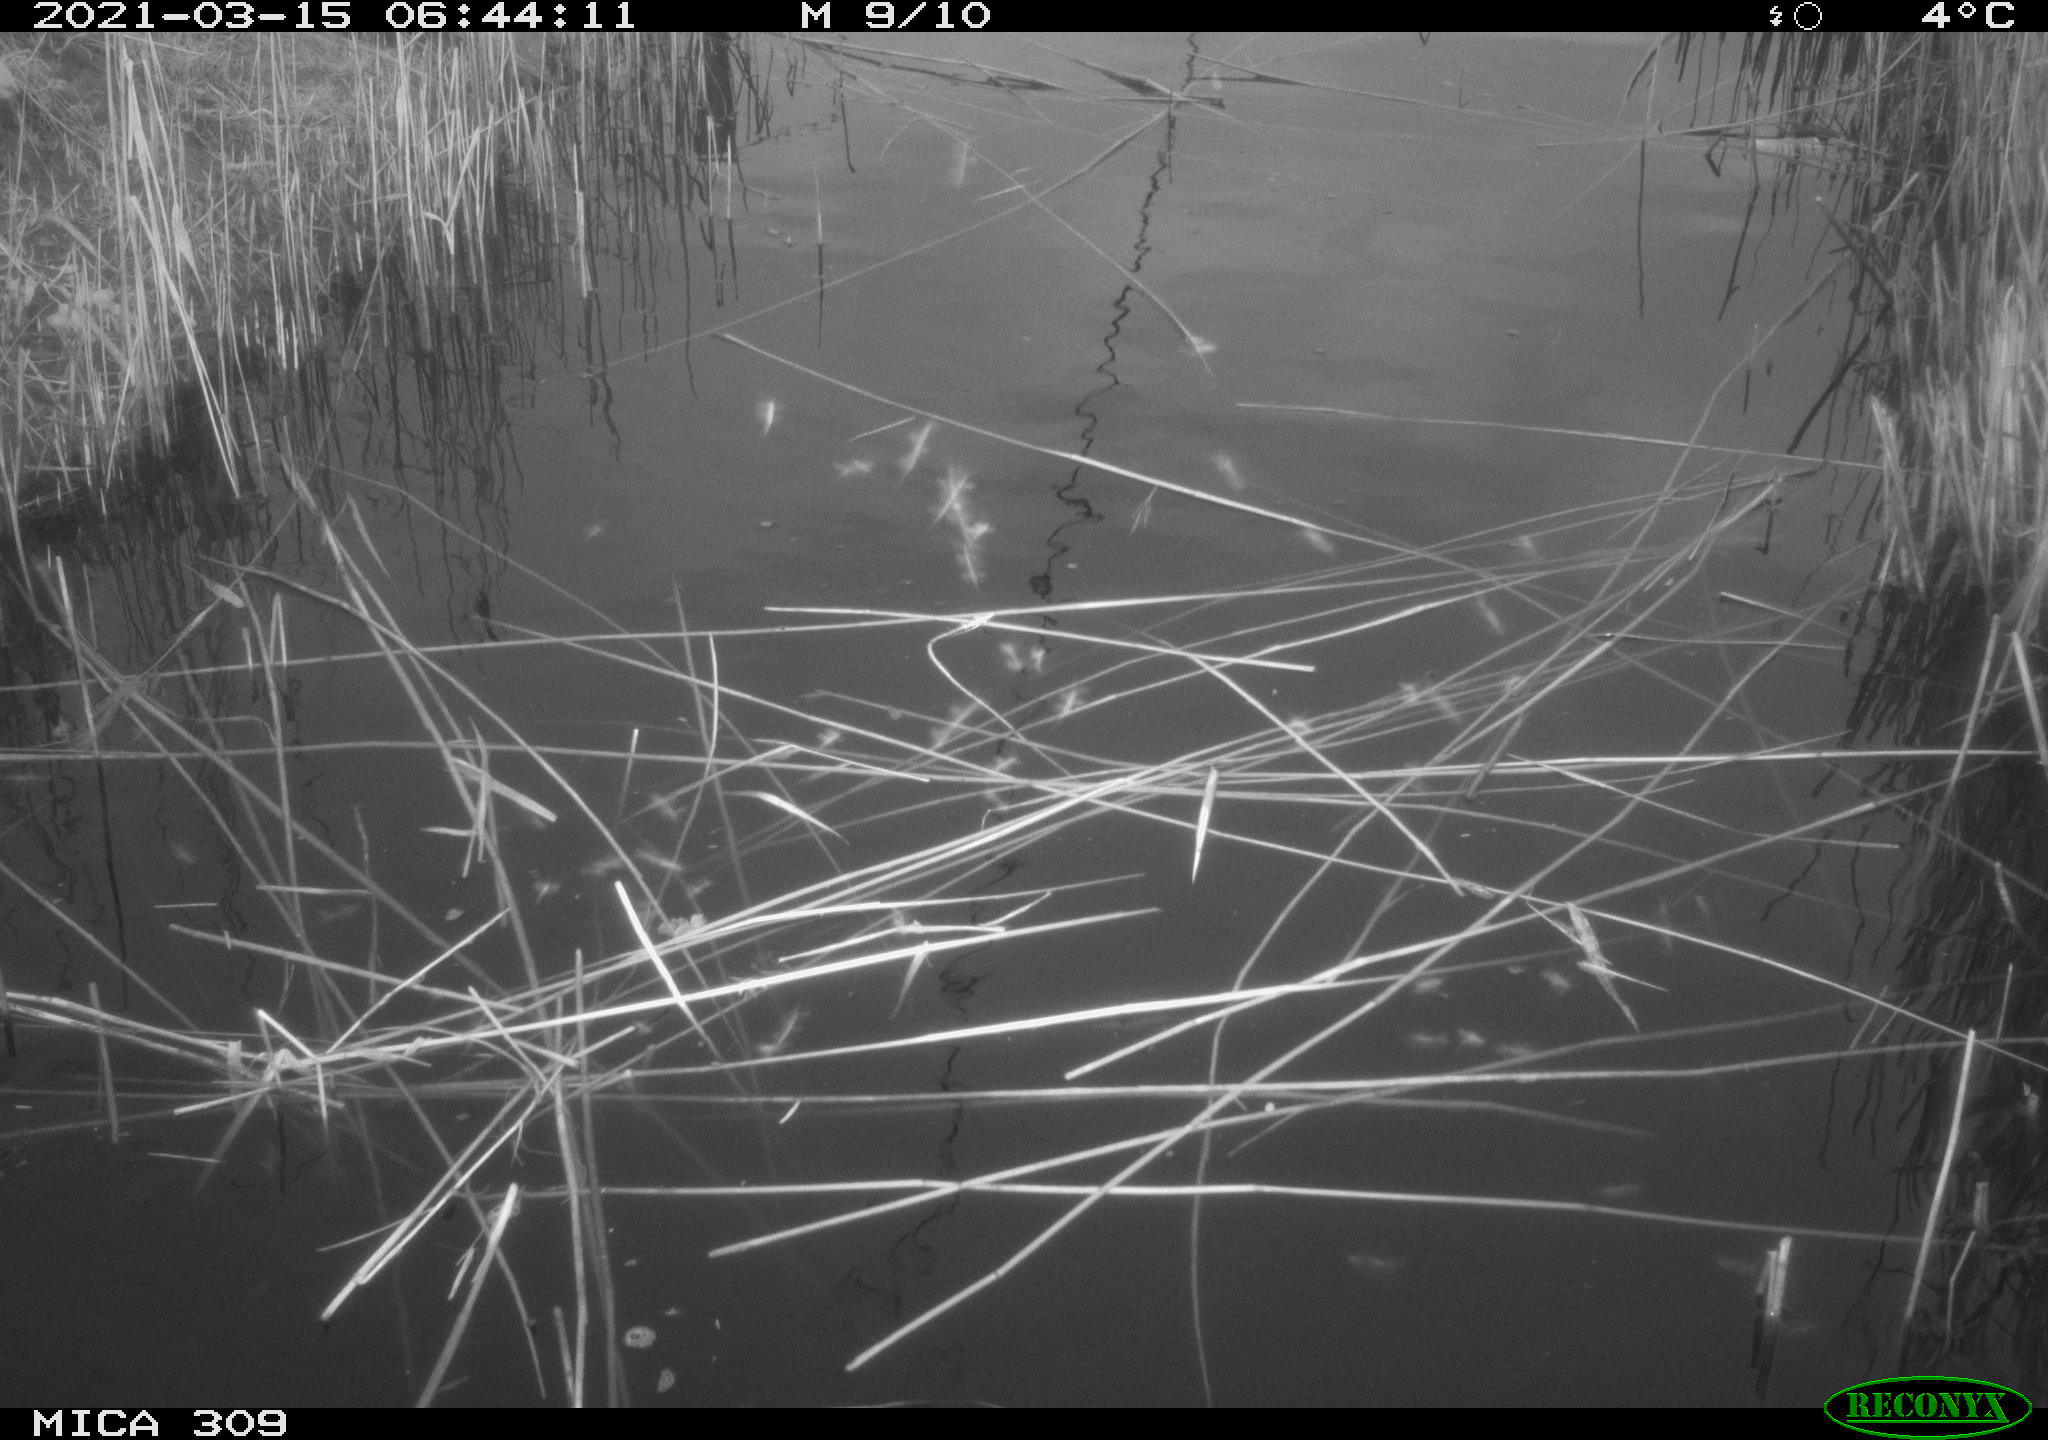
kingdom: Animalia
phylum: Chordata
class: Aves
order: Gruiformes
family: Rallidae
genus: Fulica
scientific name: Fulica atra
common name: Eurasian coot
